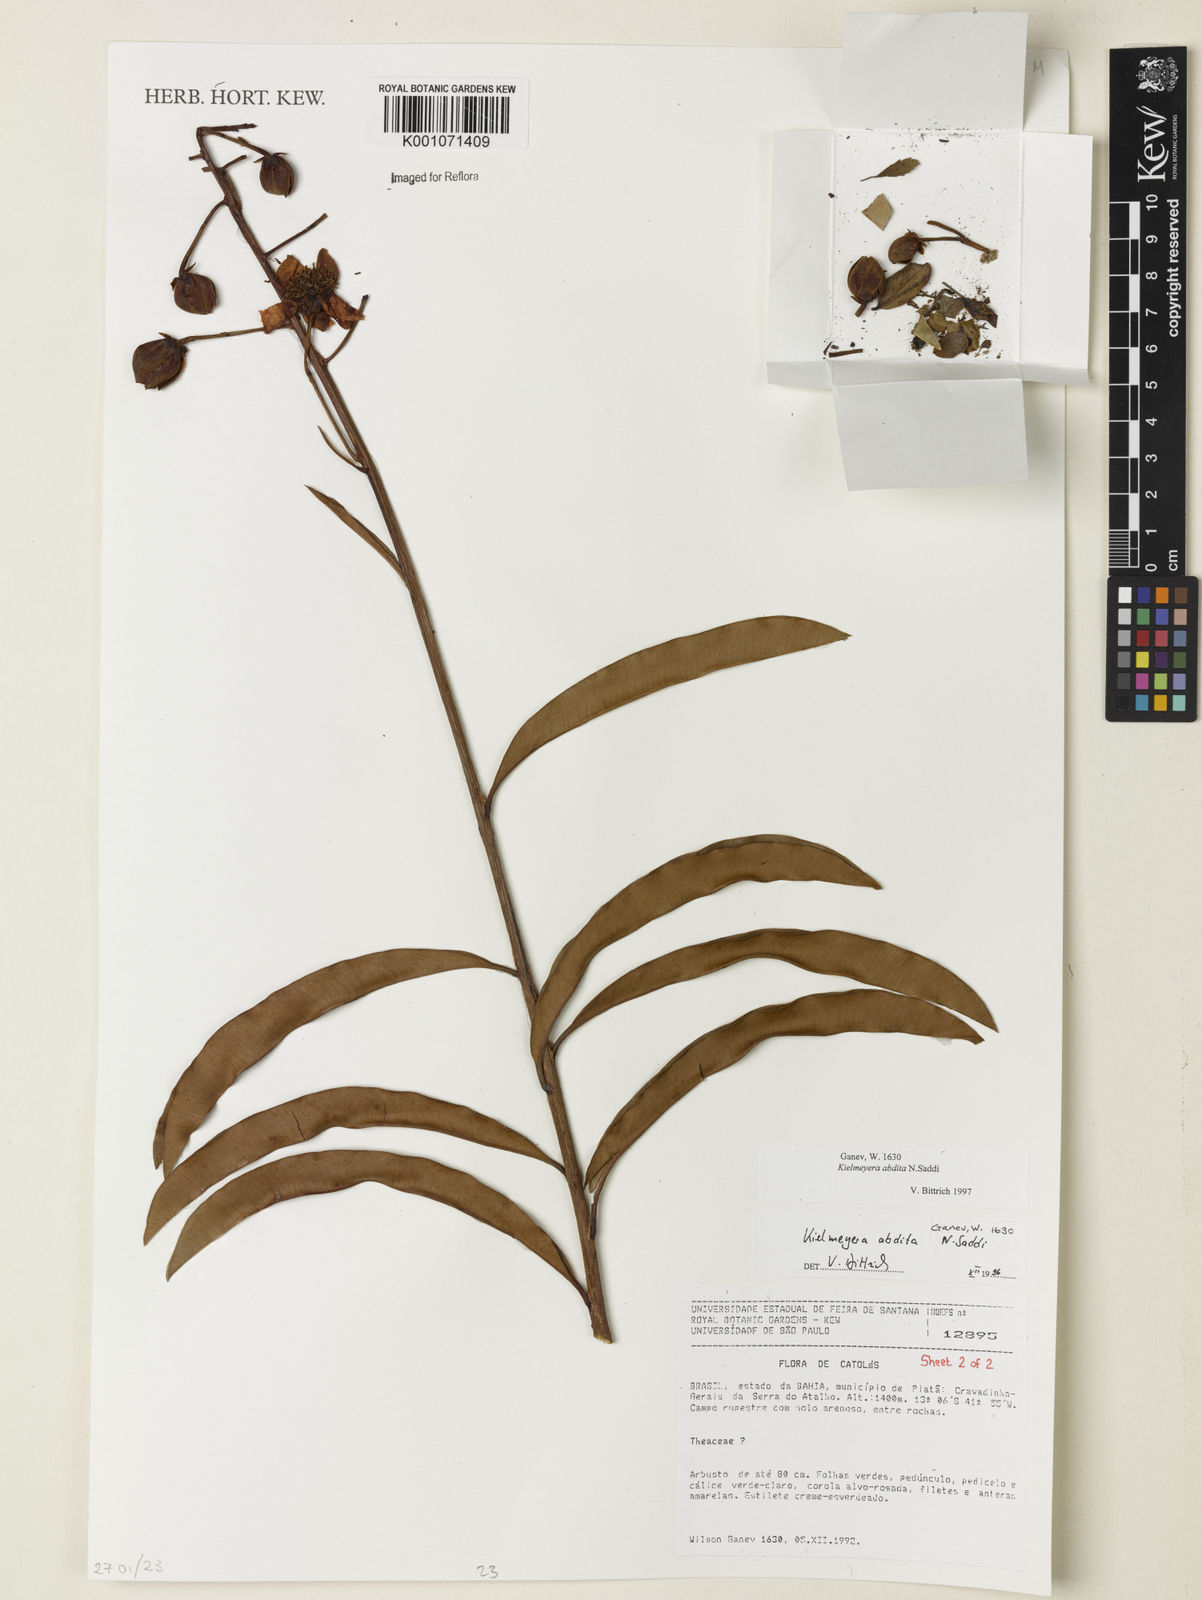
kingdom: Plantae
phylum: Tracheophyta
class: Magnoliopsida
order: Malpighiales
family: Calophyllaceae
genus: Kielmeyera
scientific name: Kielmeyera abdita
